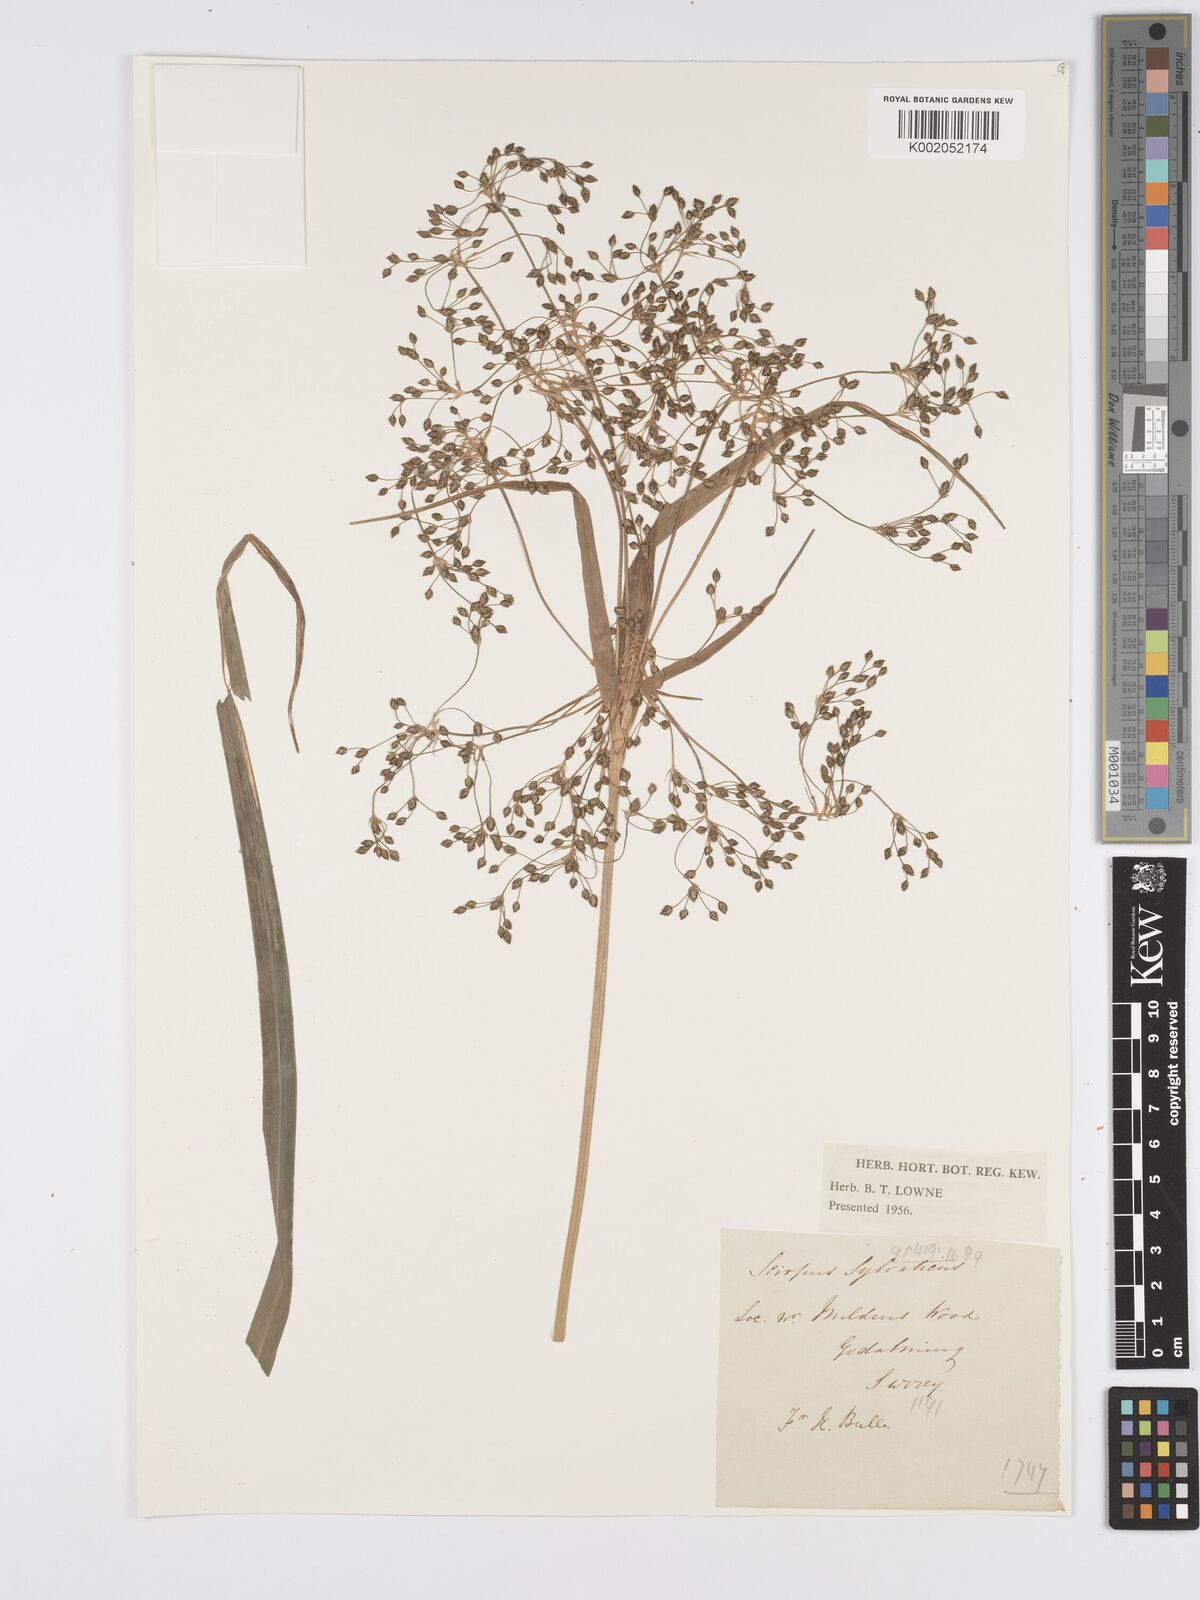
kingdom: Plantae
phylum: Tracheophyta
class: Liliopsida
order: Poales
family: Cyperaceae
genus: Scirpus
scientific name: Scirpus sylvaticus
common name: Wood club-rush
